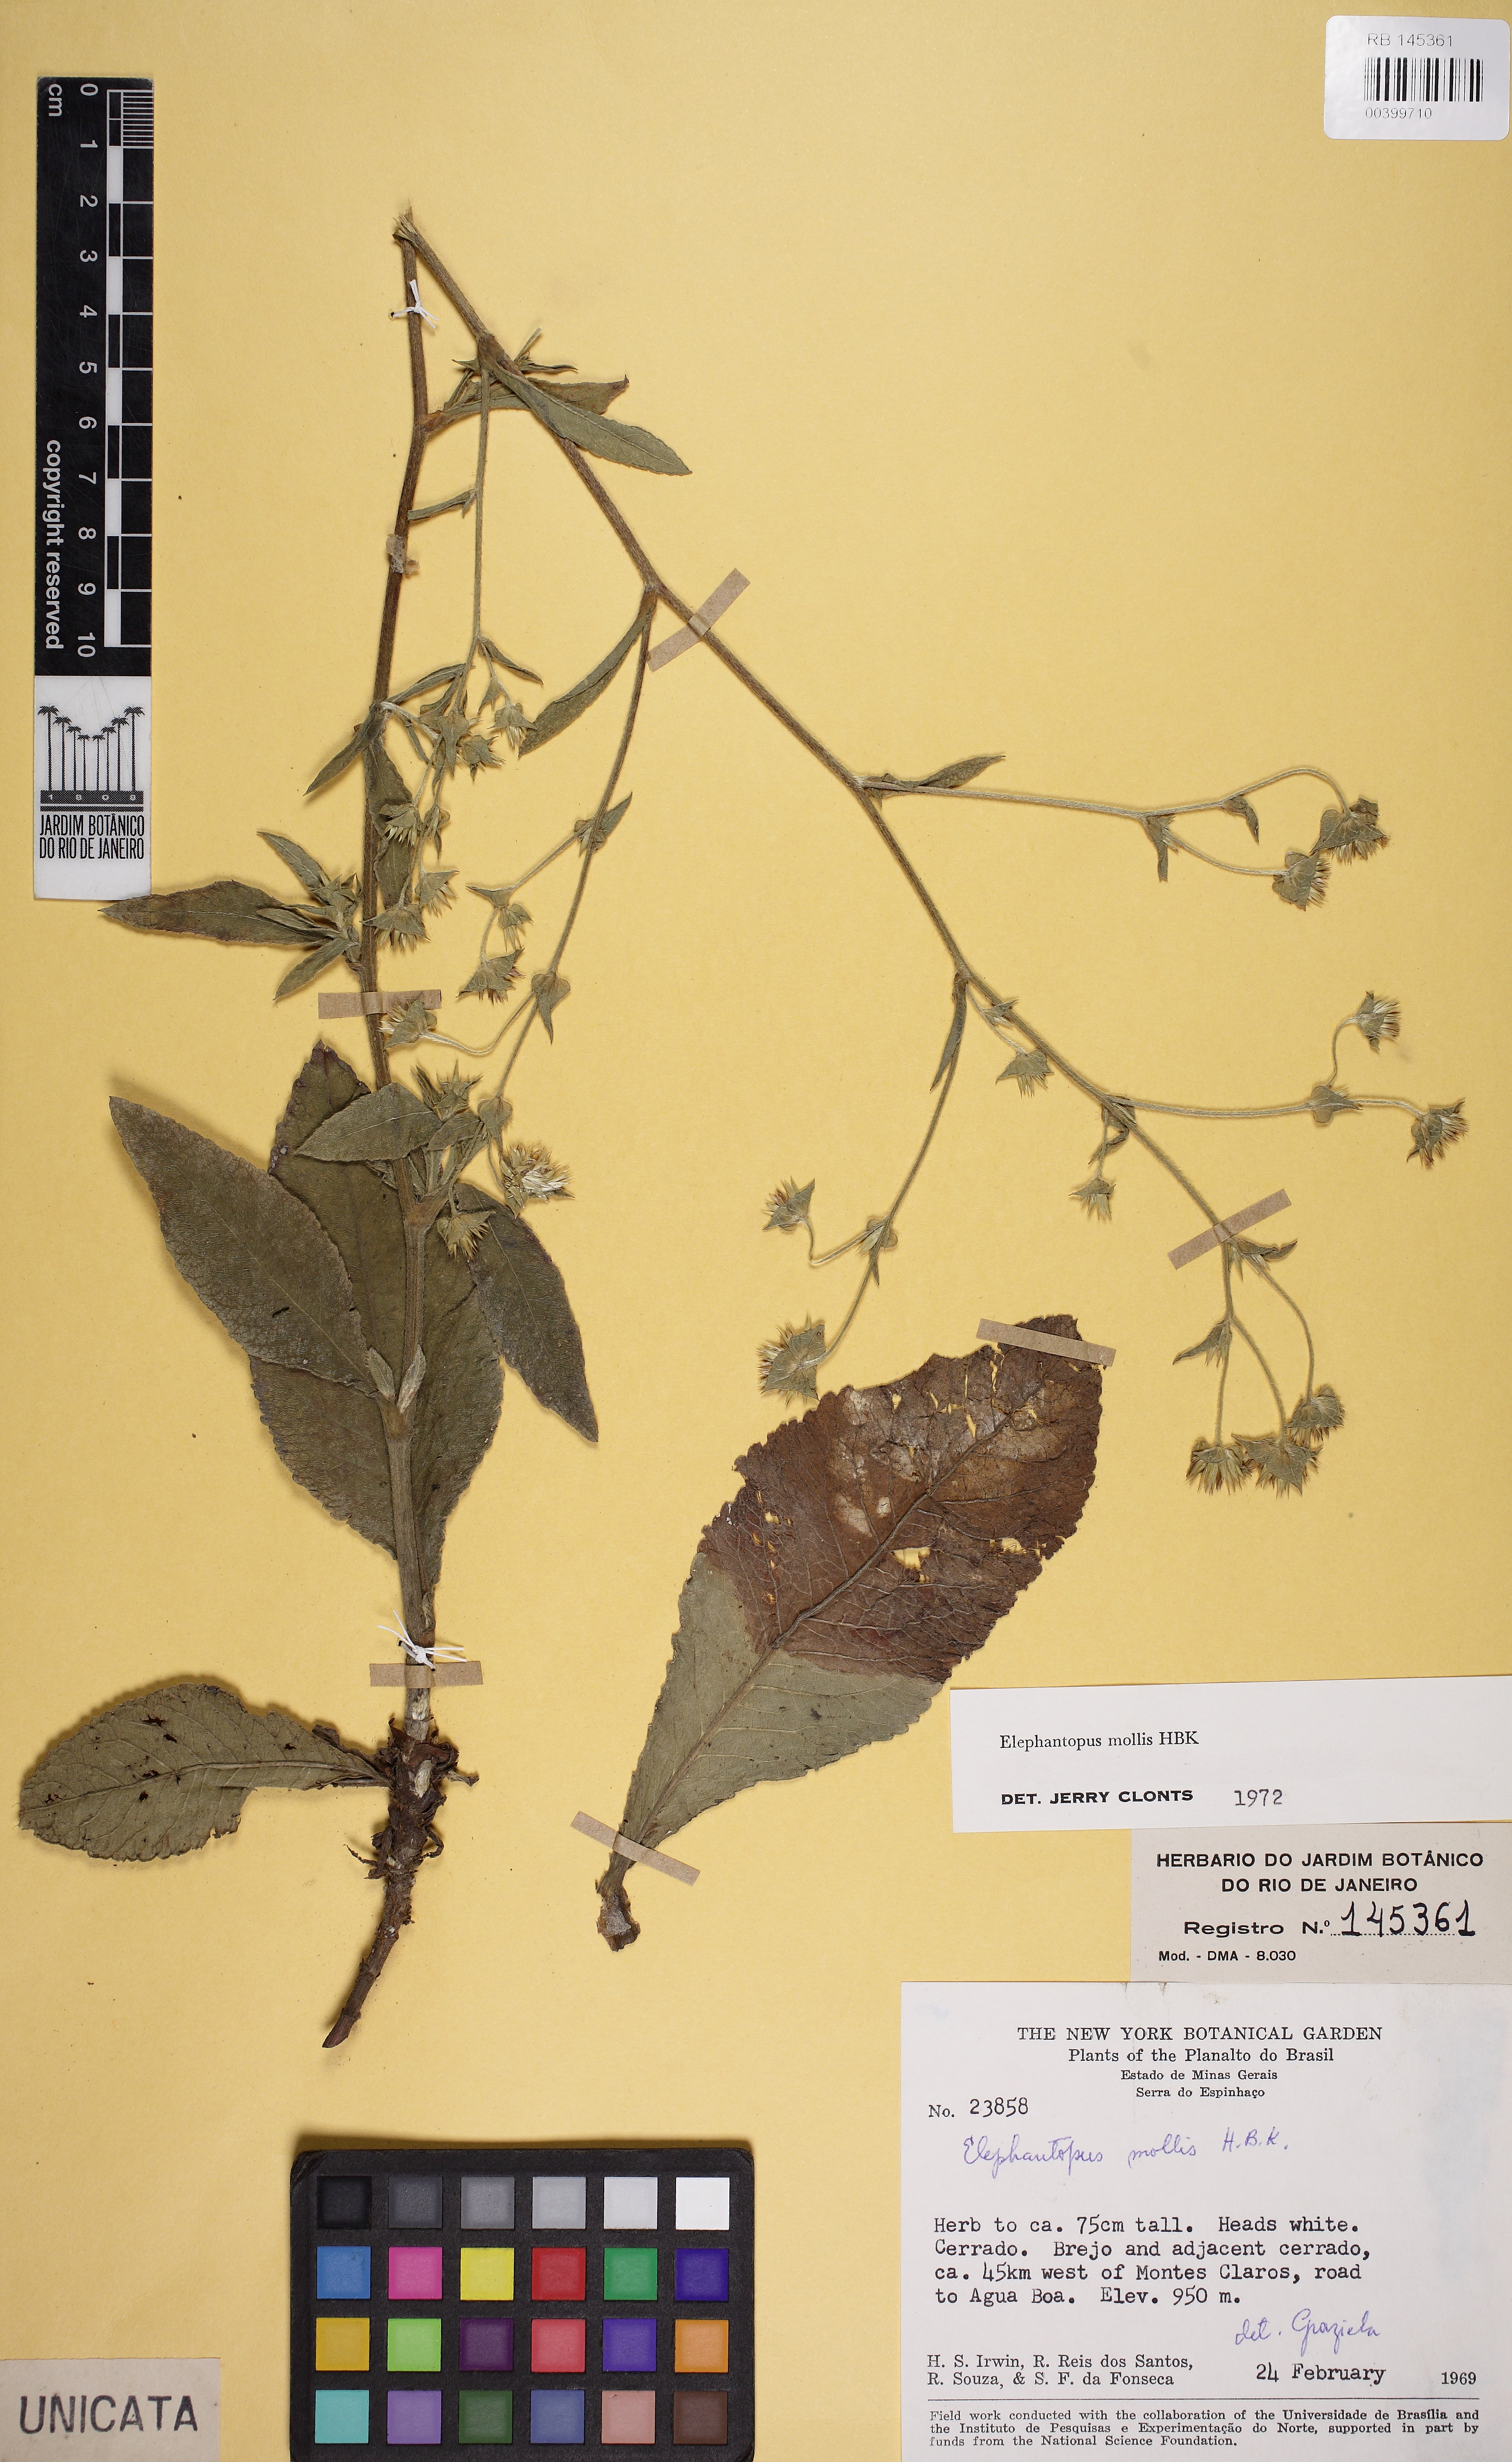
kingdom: Plantae
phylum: Tracheophyta
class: Magnoliopsida
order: Asterales
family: Asteraceae
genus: Elephantopus
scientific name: Elephantopus mollis
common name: Soft elephantsfoot
